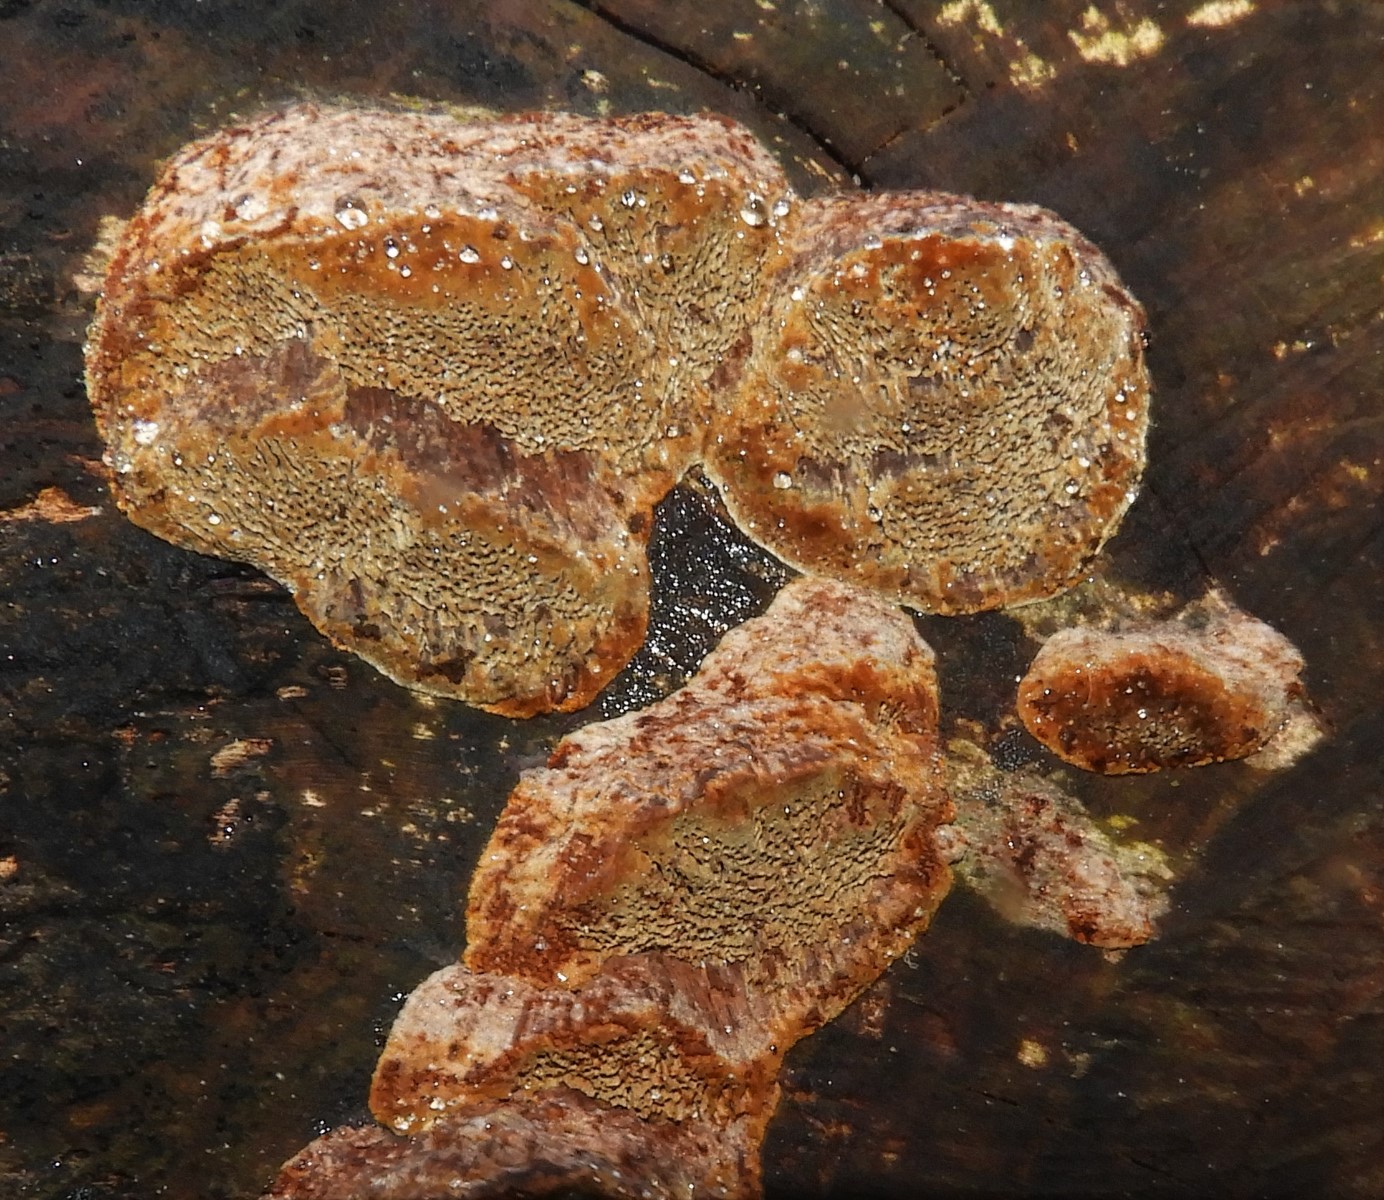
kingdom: Fungi
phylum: Basidiomycota
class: Agaricomycetes
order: Hymenochaetales
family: Hymenochaetaceae
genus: Phellinus
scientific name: Phellinus pomaceus
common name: blomme-ildporesvamp
